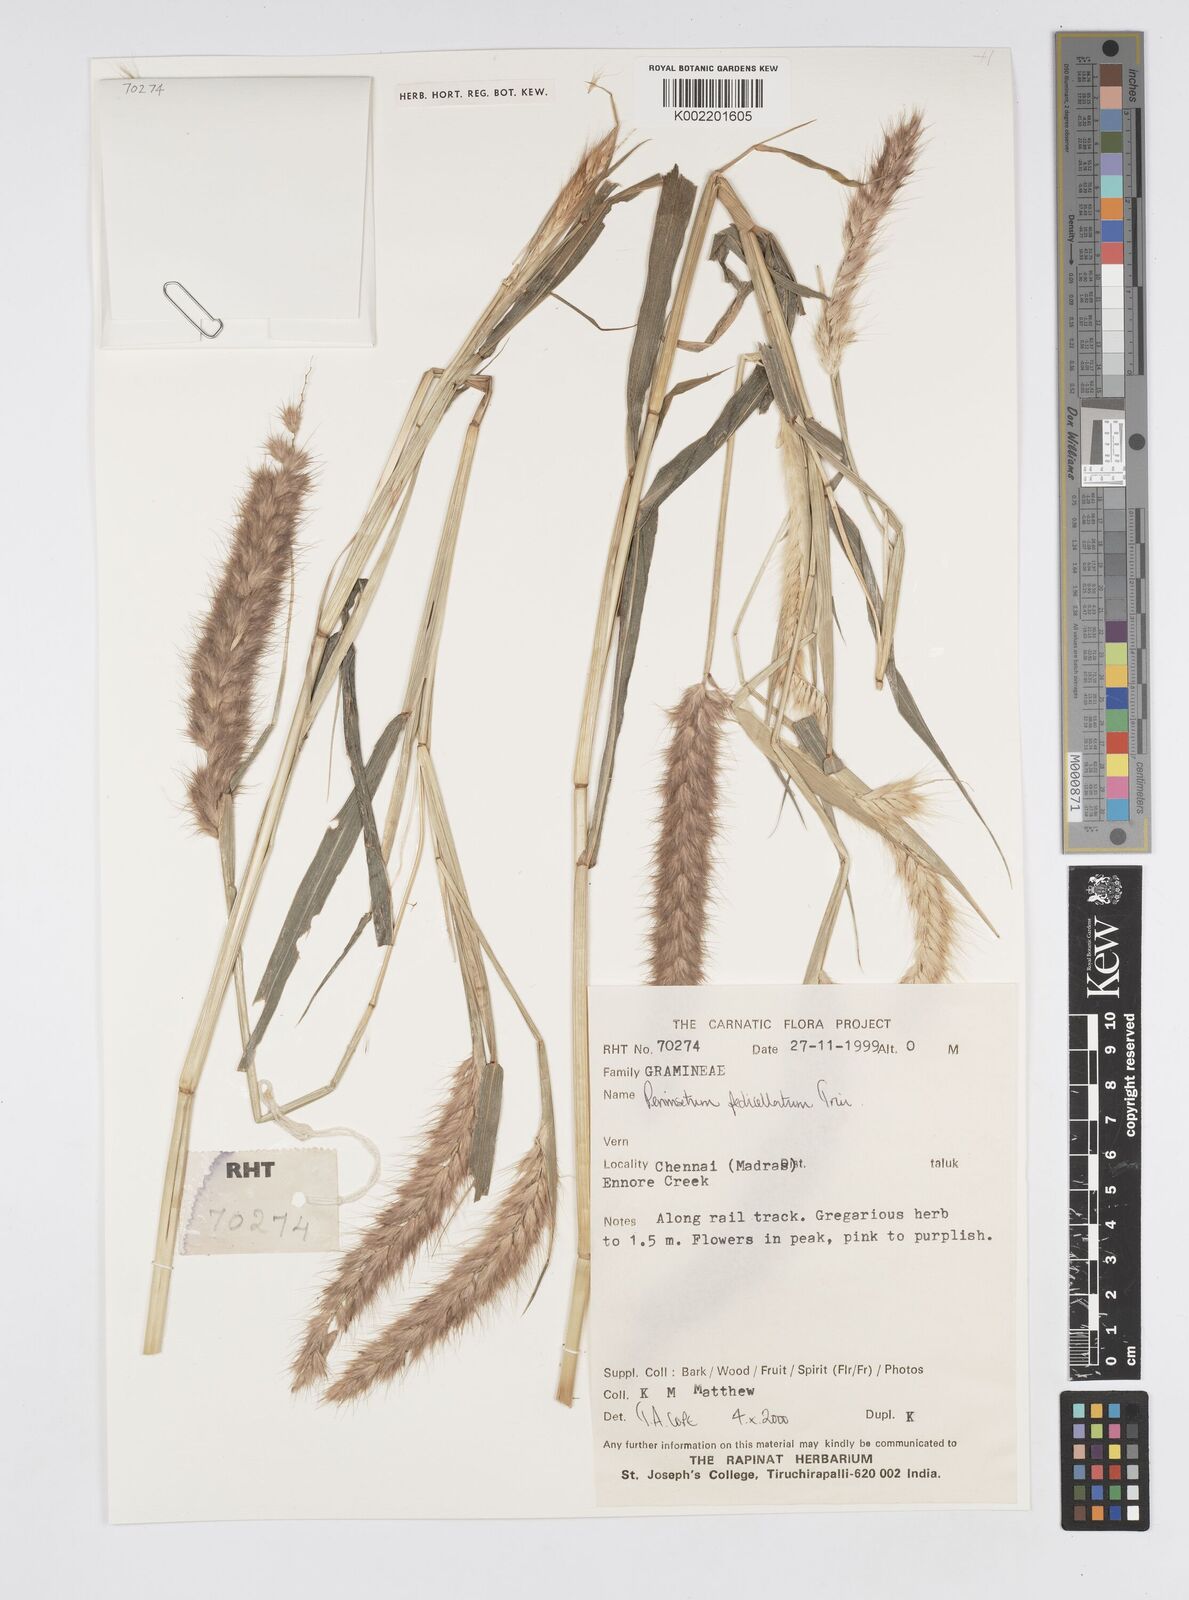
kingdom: Plantae
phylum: Tracheophyta
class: Liliopsida
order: Poales
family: Poaceae
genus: Cenchrus
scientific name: Cenchrus pedicellatus
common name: Hairy fountain grass
